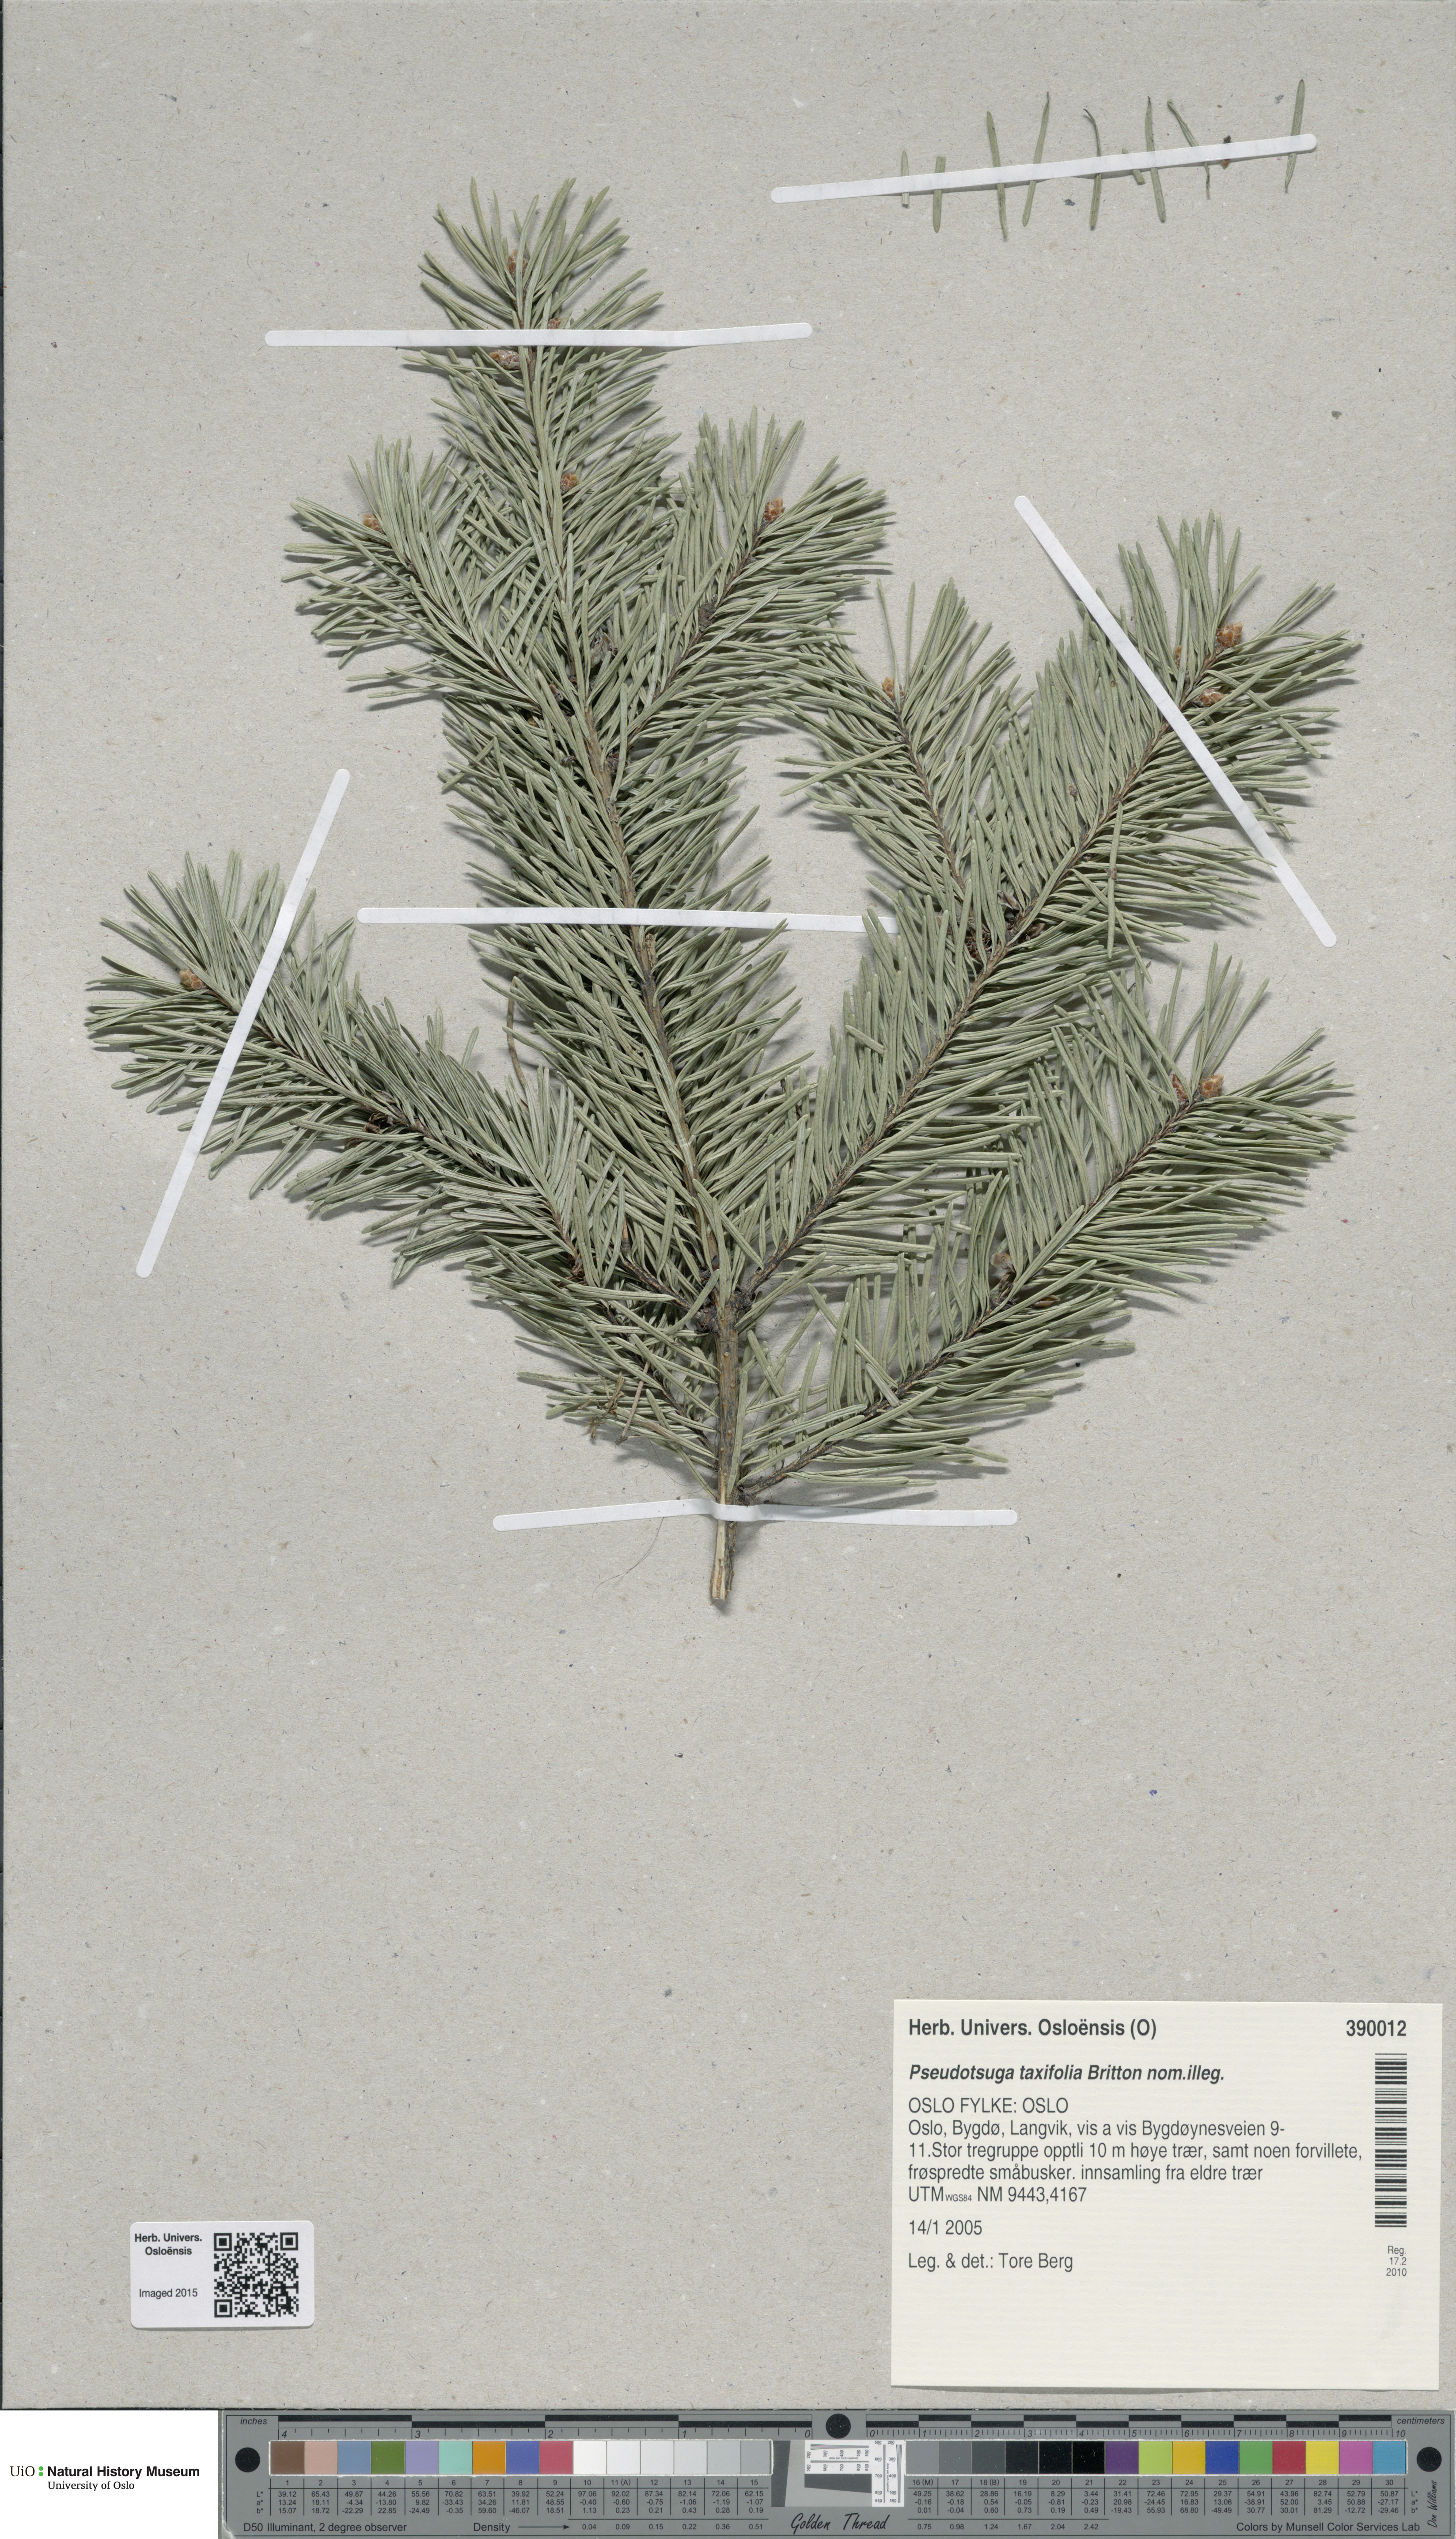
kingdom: Plantae
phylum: Tracheophyta
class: Pinopsida
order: Pinales
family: Pinaceae
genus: Pseudotsuga
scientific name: Pseudotsuga menziesii
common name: Douglas fir
